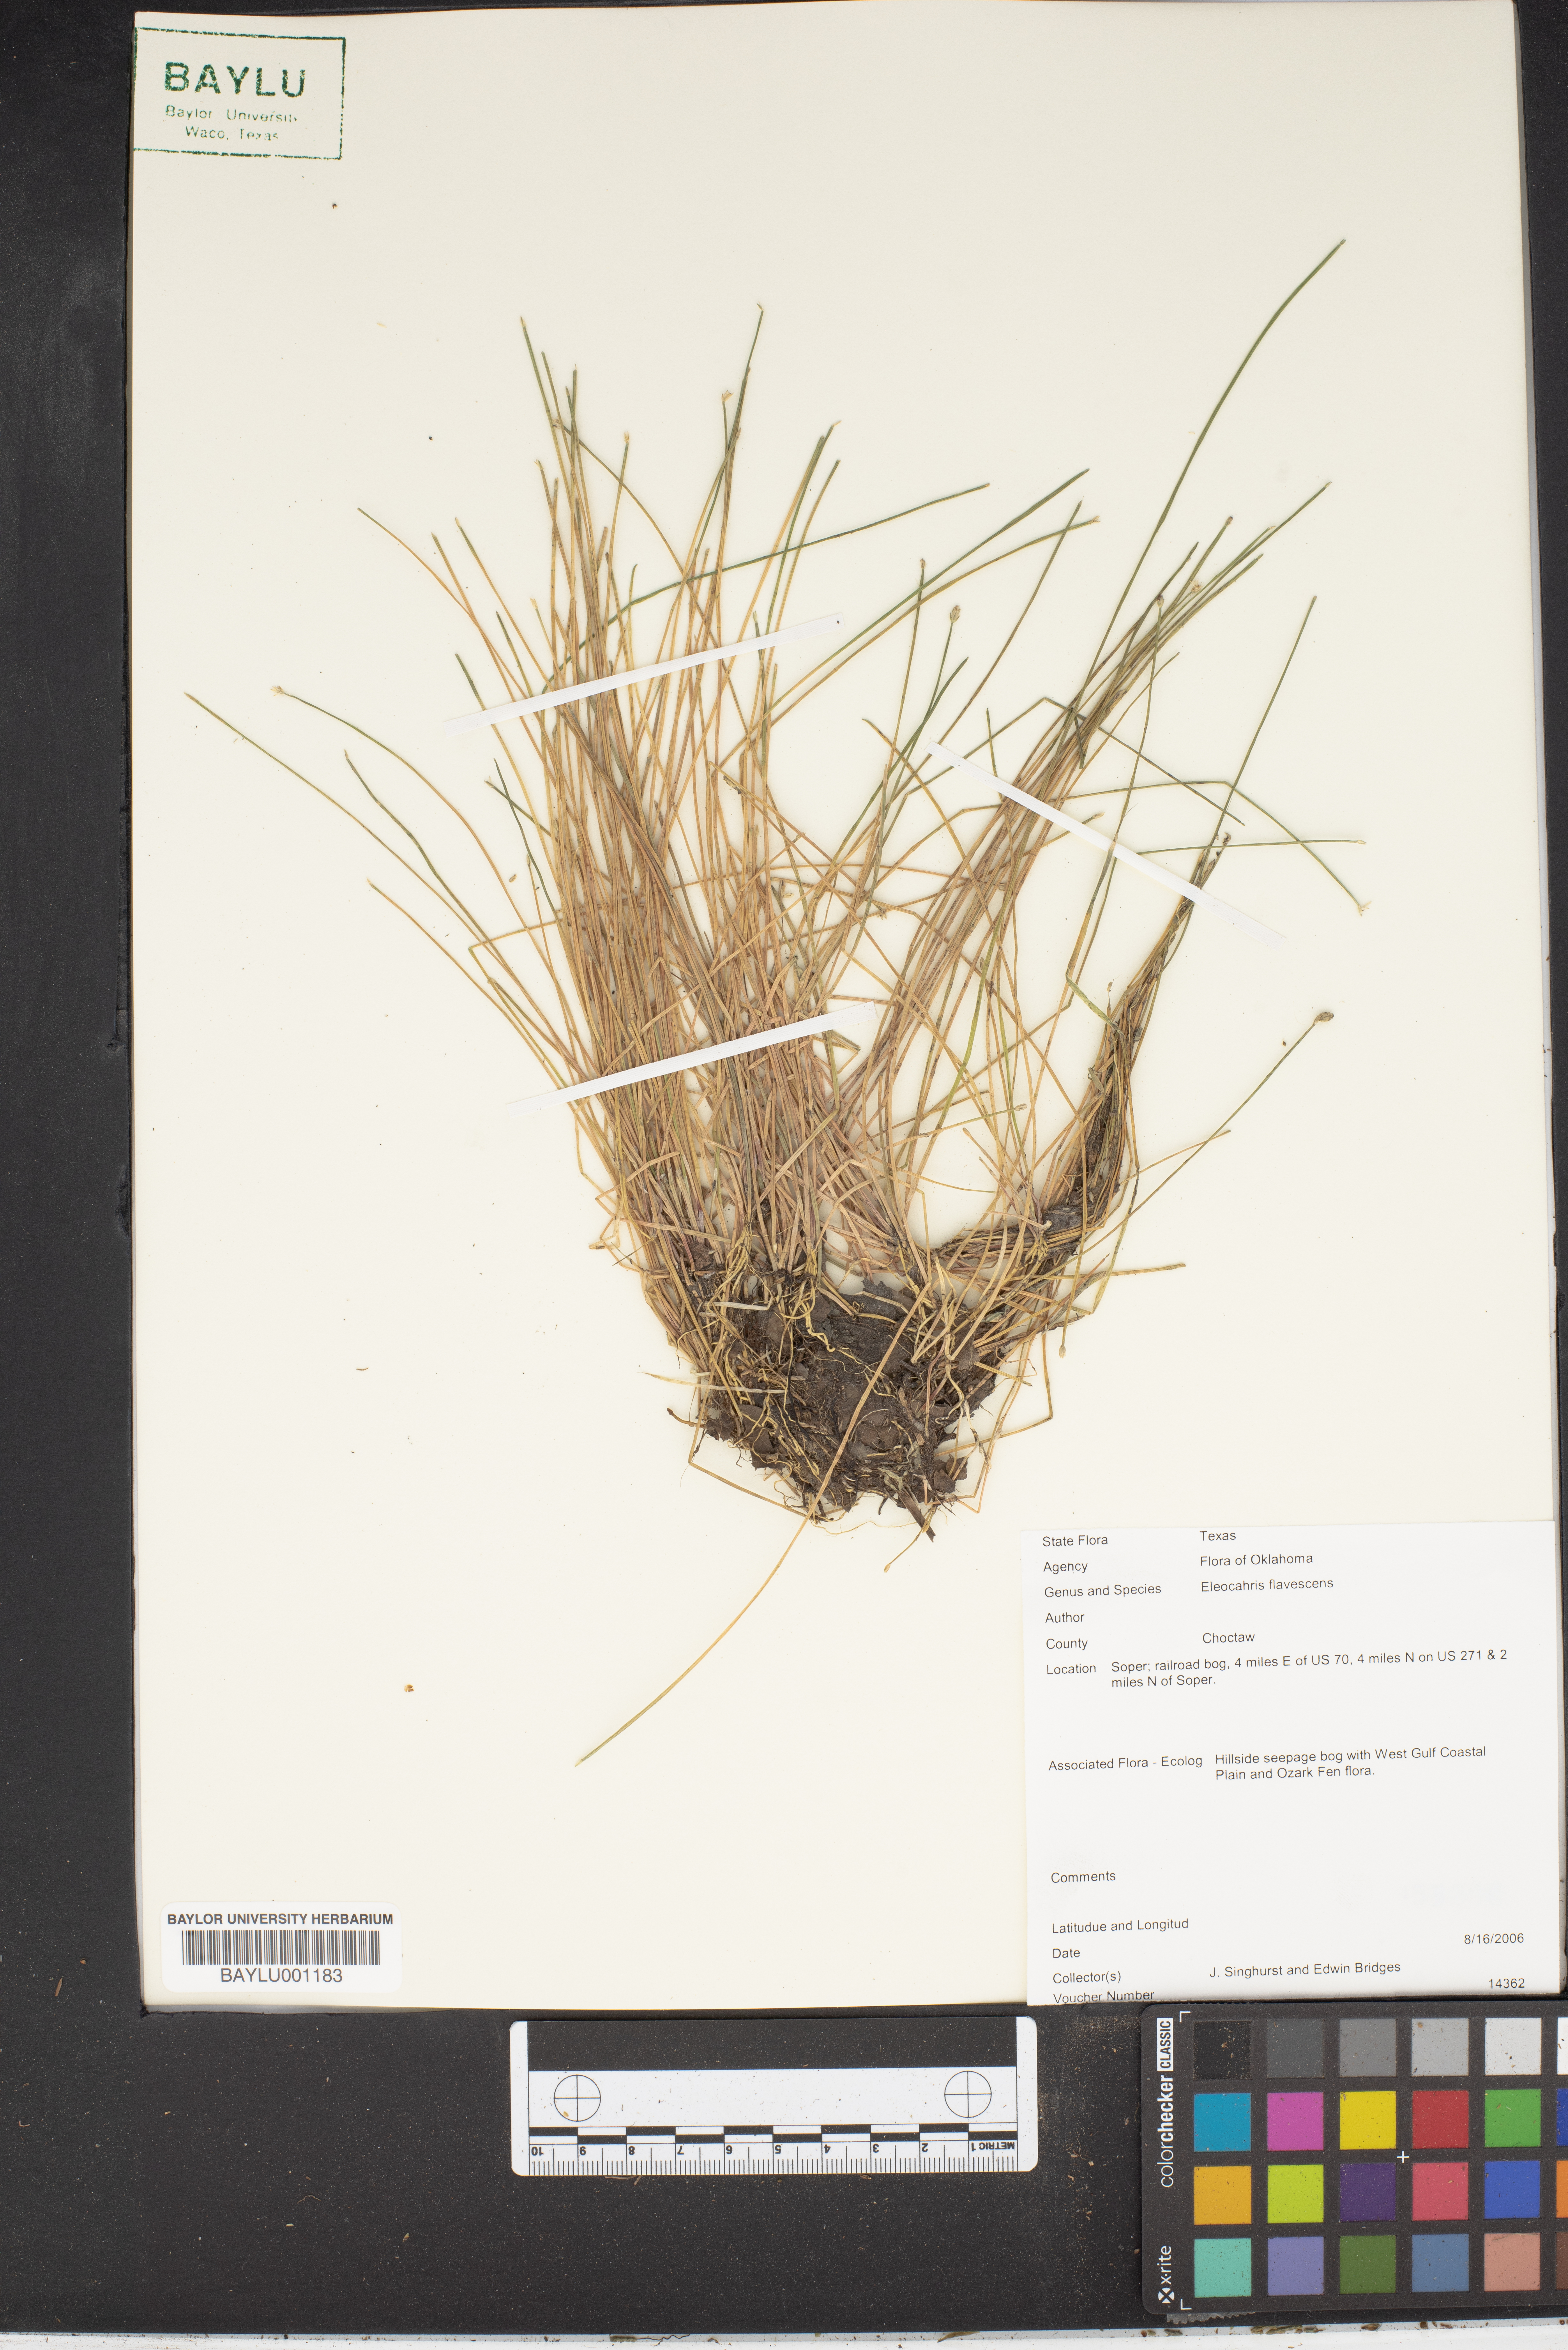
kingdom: Plantae
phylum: Tracheophyta
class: Liliopsida
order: Poales
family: Cyperaceae
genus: Eleocharis
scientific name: Eleocharis flavescens
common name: Yellow spikerush
